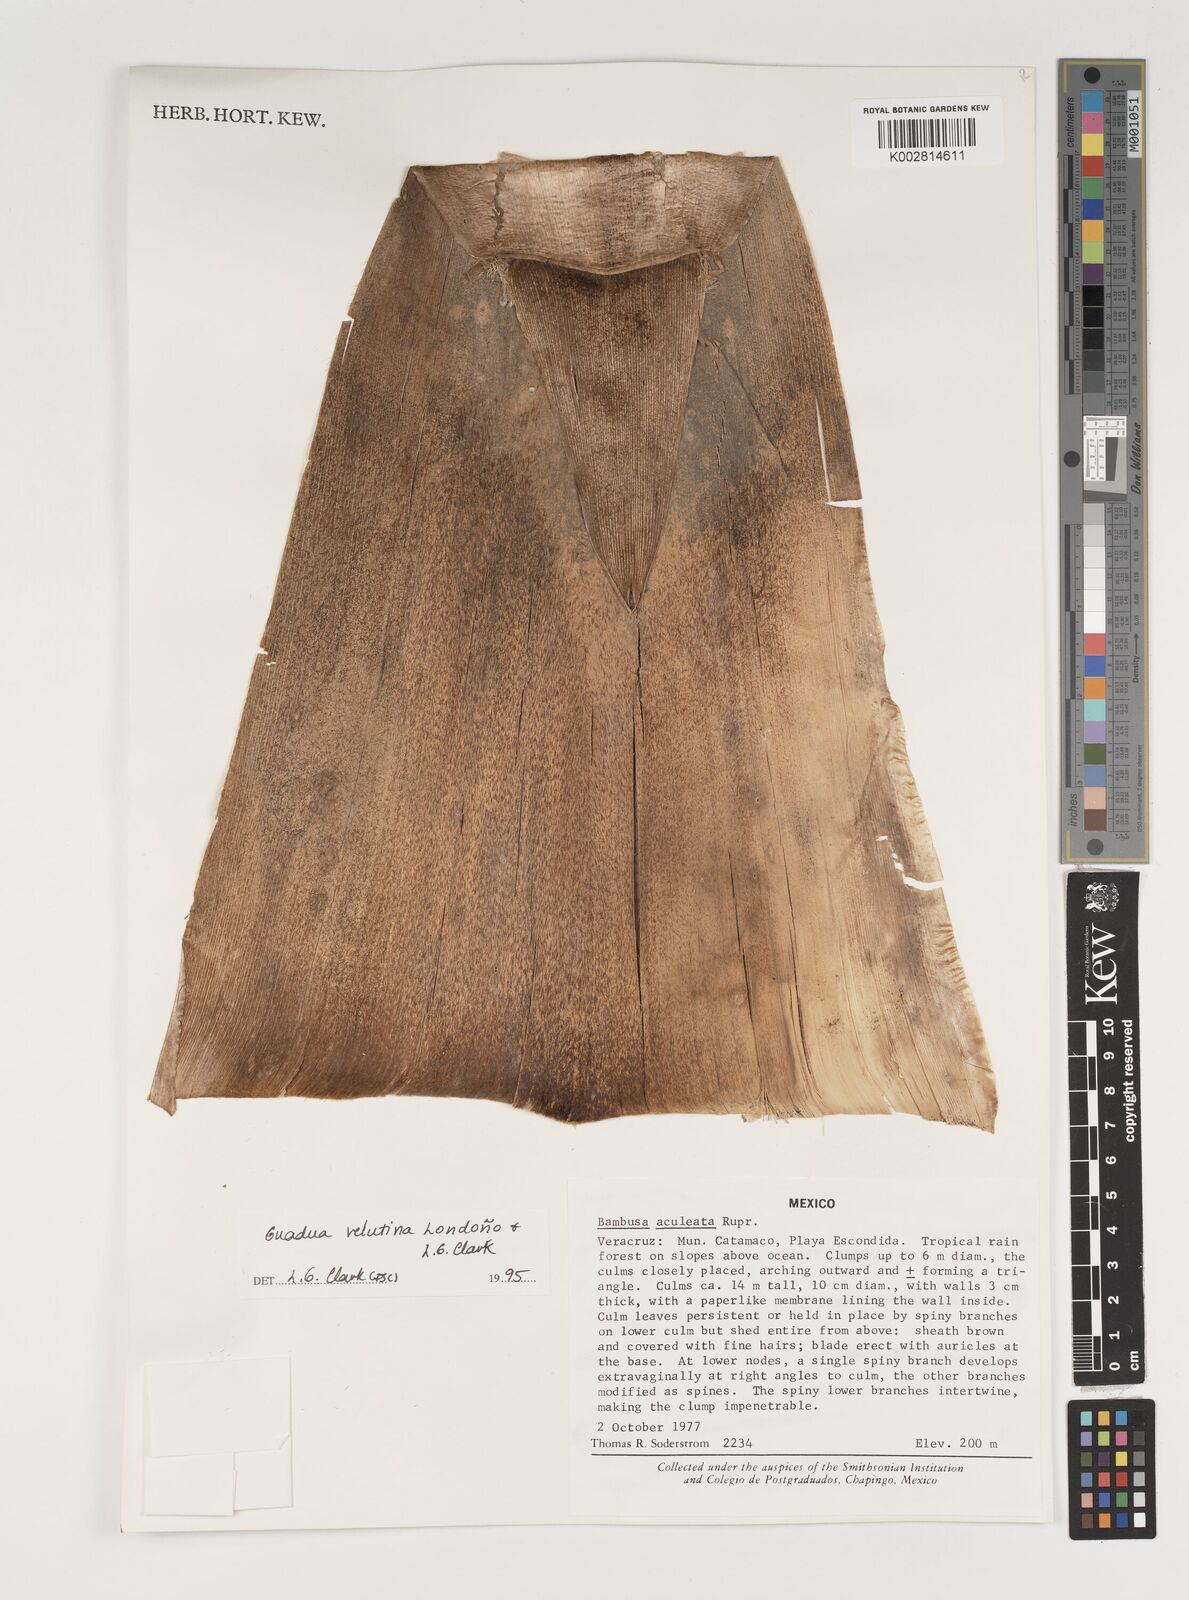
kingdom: Plantae
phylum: Tracheophyta
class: Liliopsida
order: Poales
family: Poaceae
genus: Guadua
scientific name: Guadua velutina
